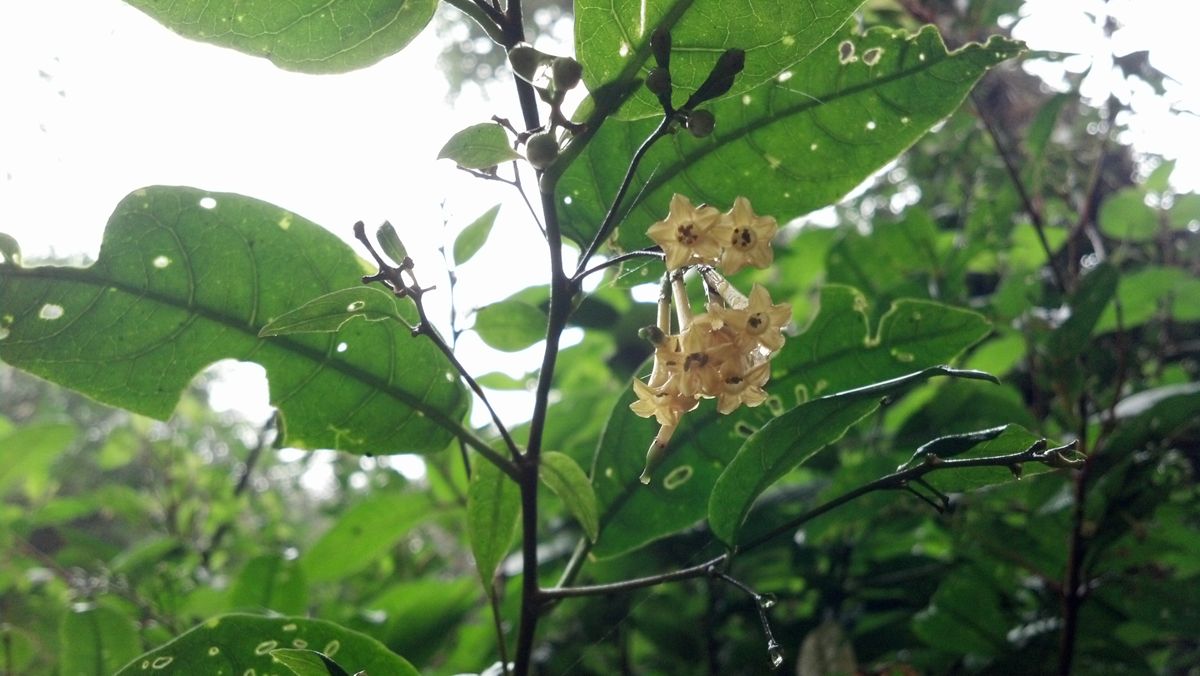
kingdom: Plantae
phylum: Tracheophyta
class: Magnoliopsida
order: Solanales
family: Solanaceae
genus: Cestrum
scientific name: Cestrum aurantiacum
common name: Orange cestrum
